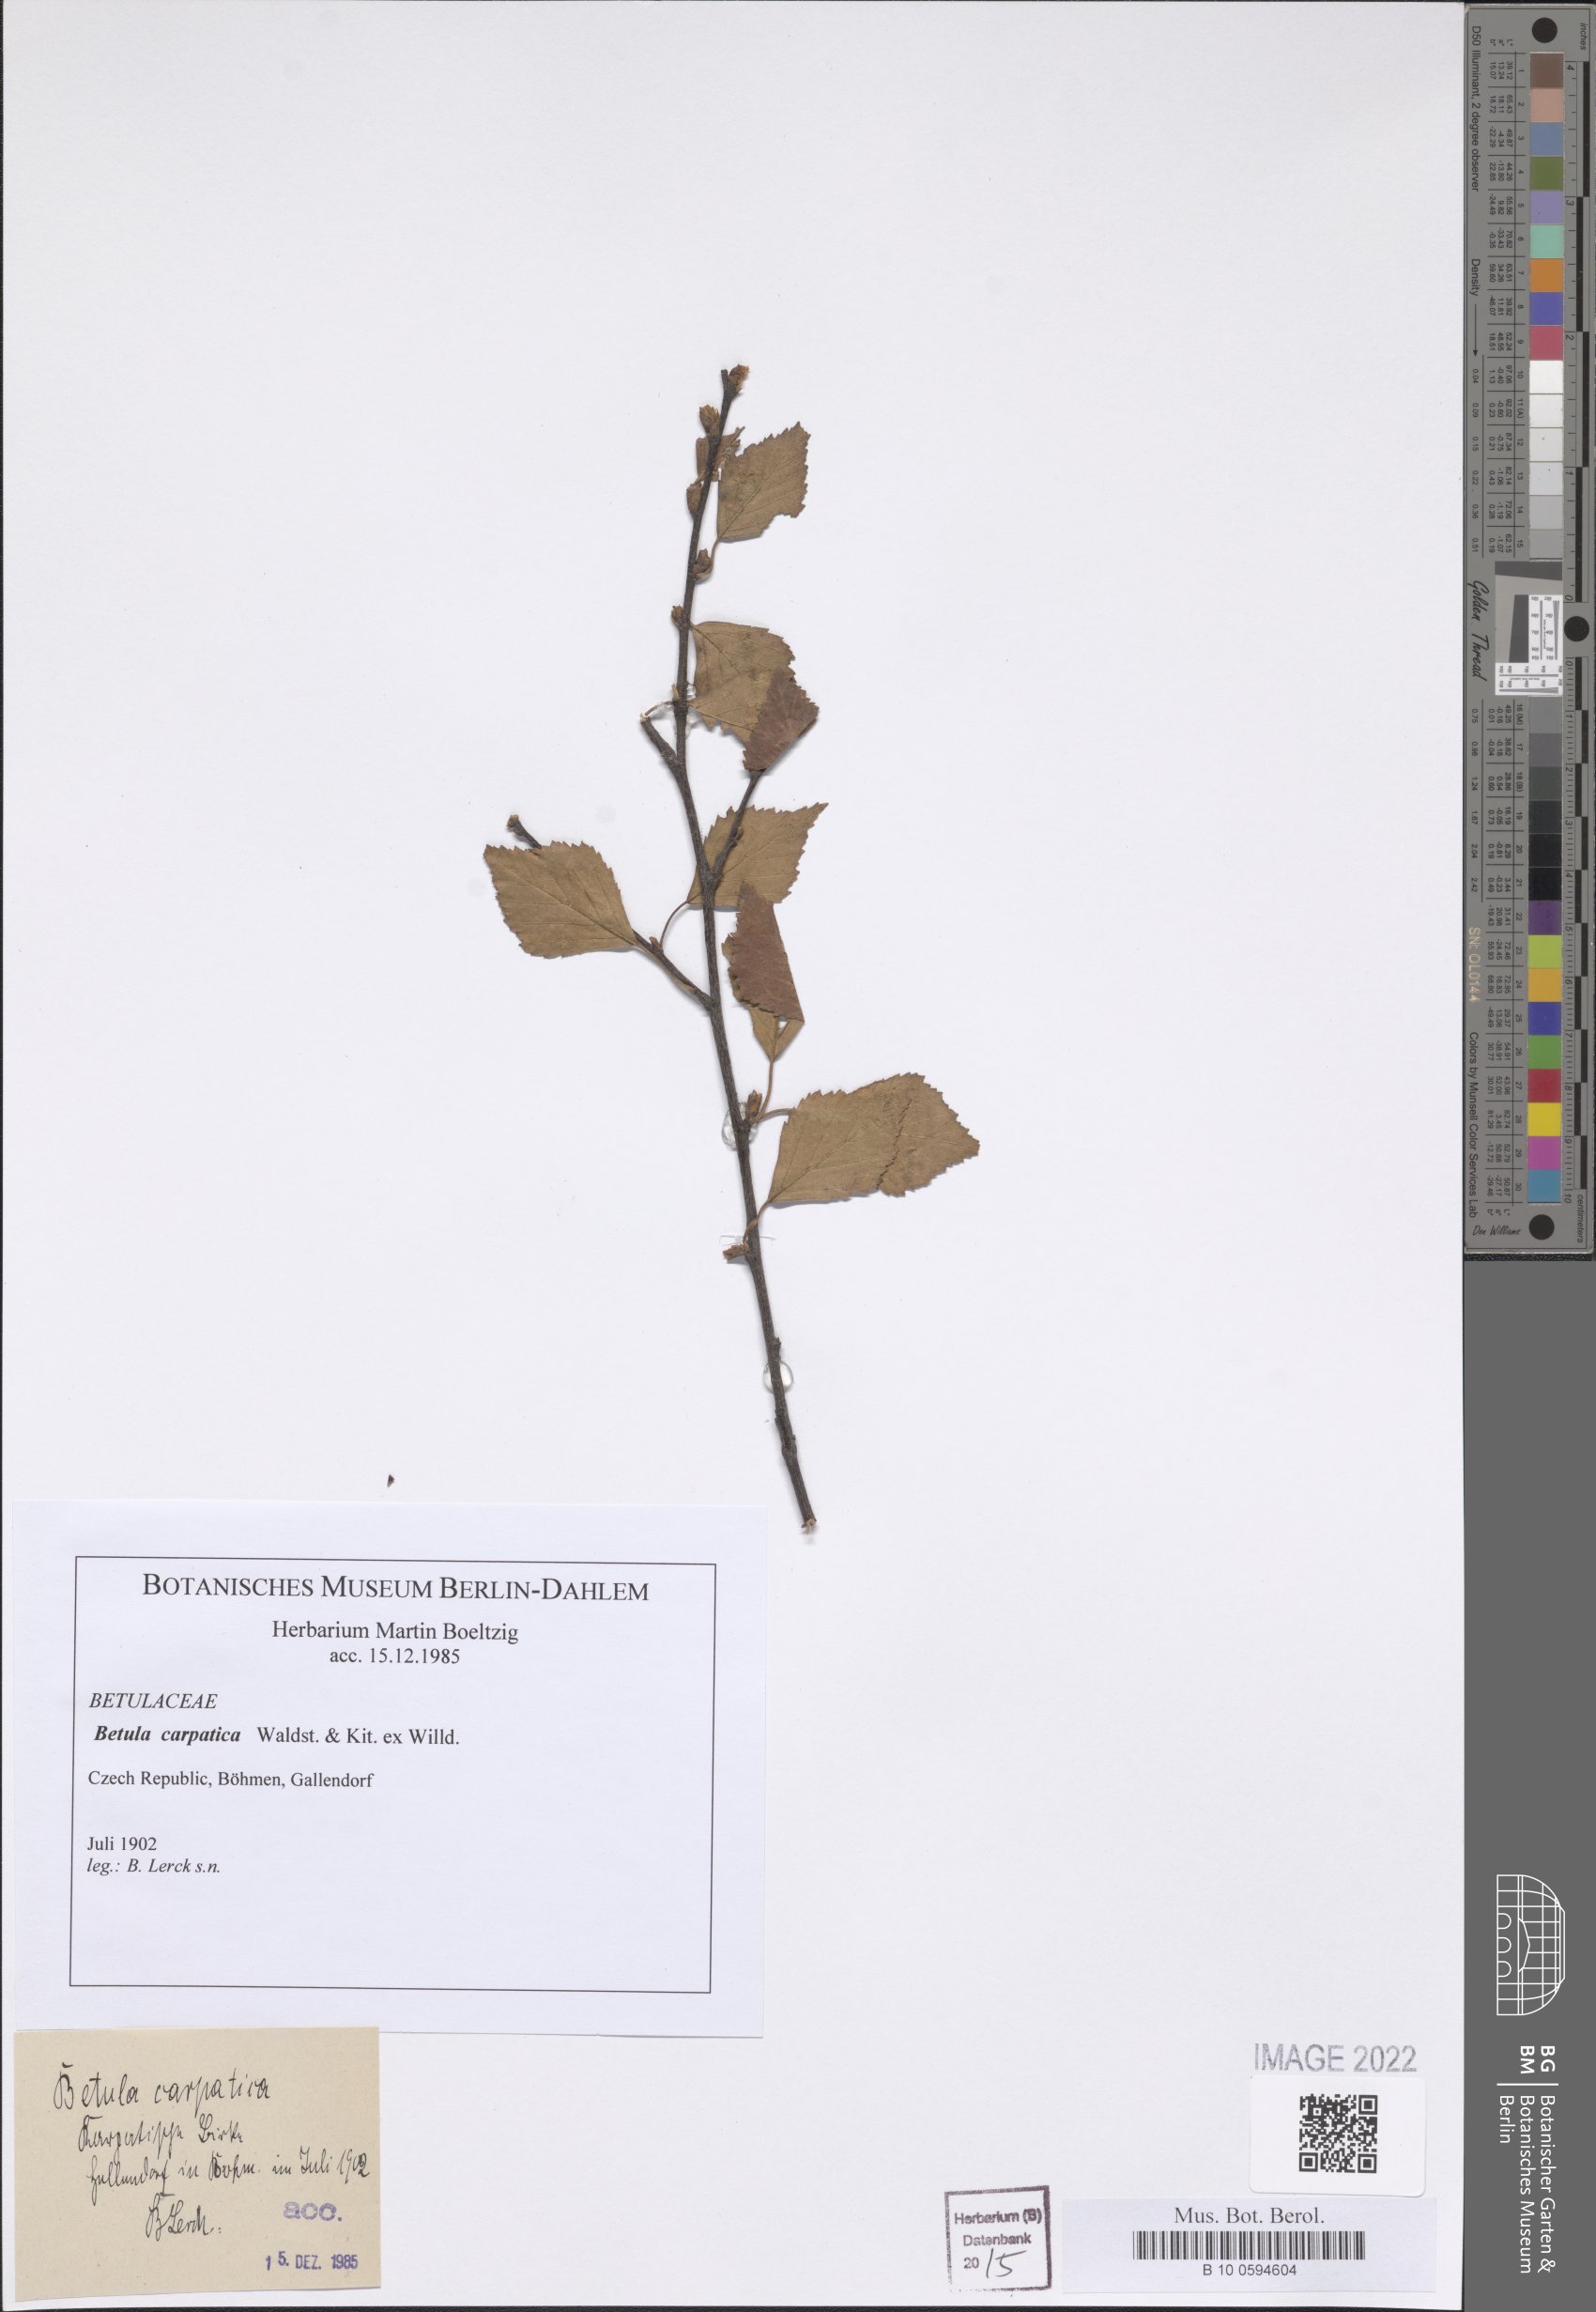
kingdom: Plantae
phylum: Tracheophyta
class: Magnoliopsida
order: Fagales
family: Betulaceae
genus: Betula
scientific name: Betula pubescens
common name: Downy birch
